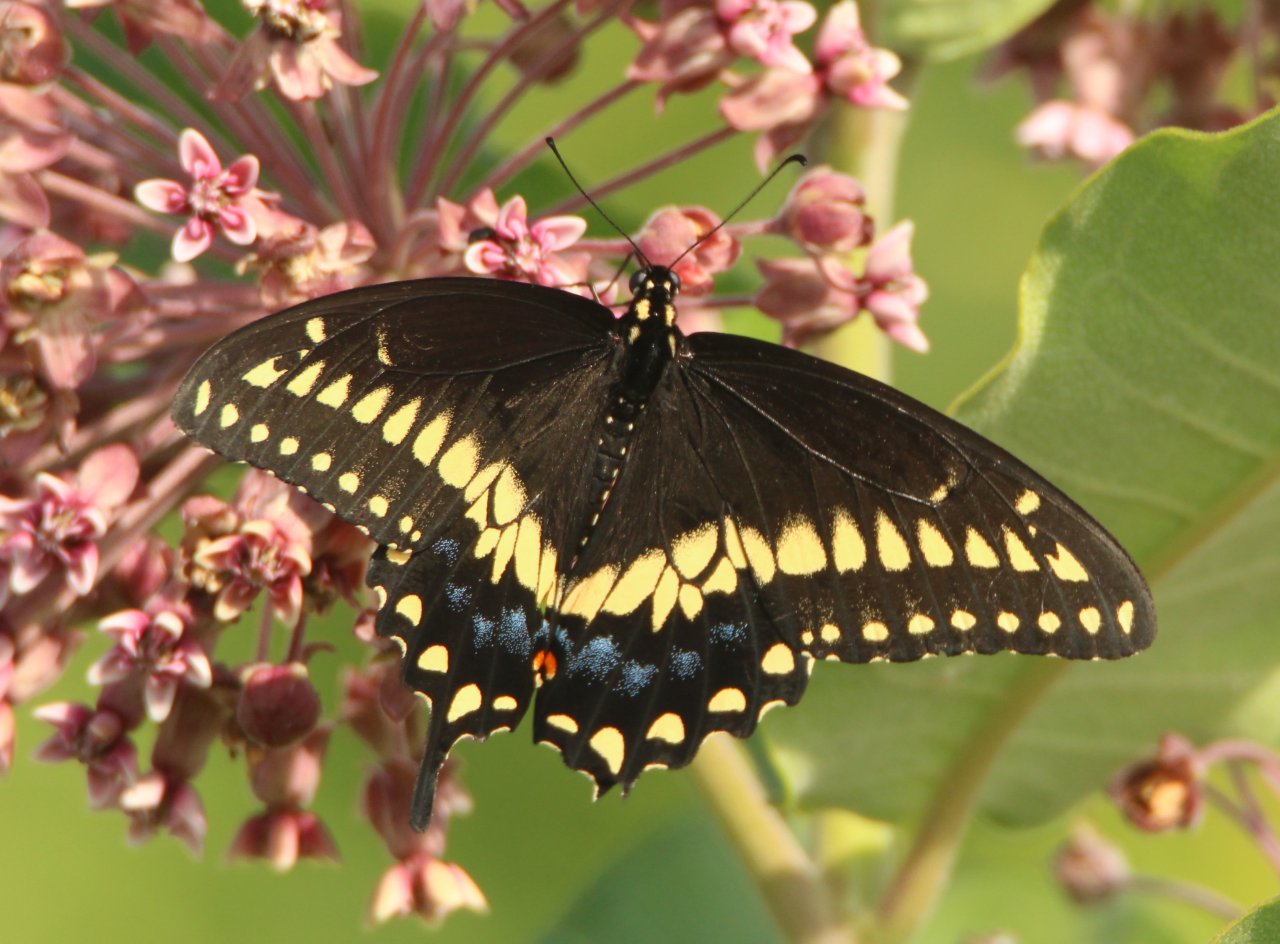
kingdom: Animalia
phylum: Arthropoda
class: Insecta
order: Lepidoptera
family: Papilionidae
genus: Papilio
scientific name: Papilio polyxenes
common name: Black Swallowtail
